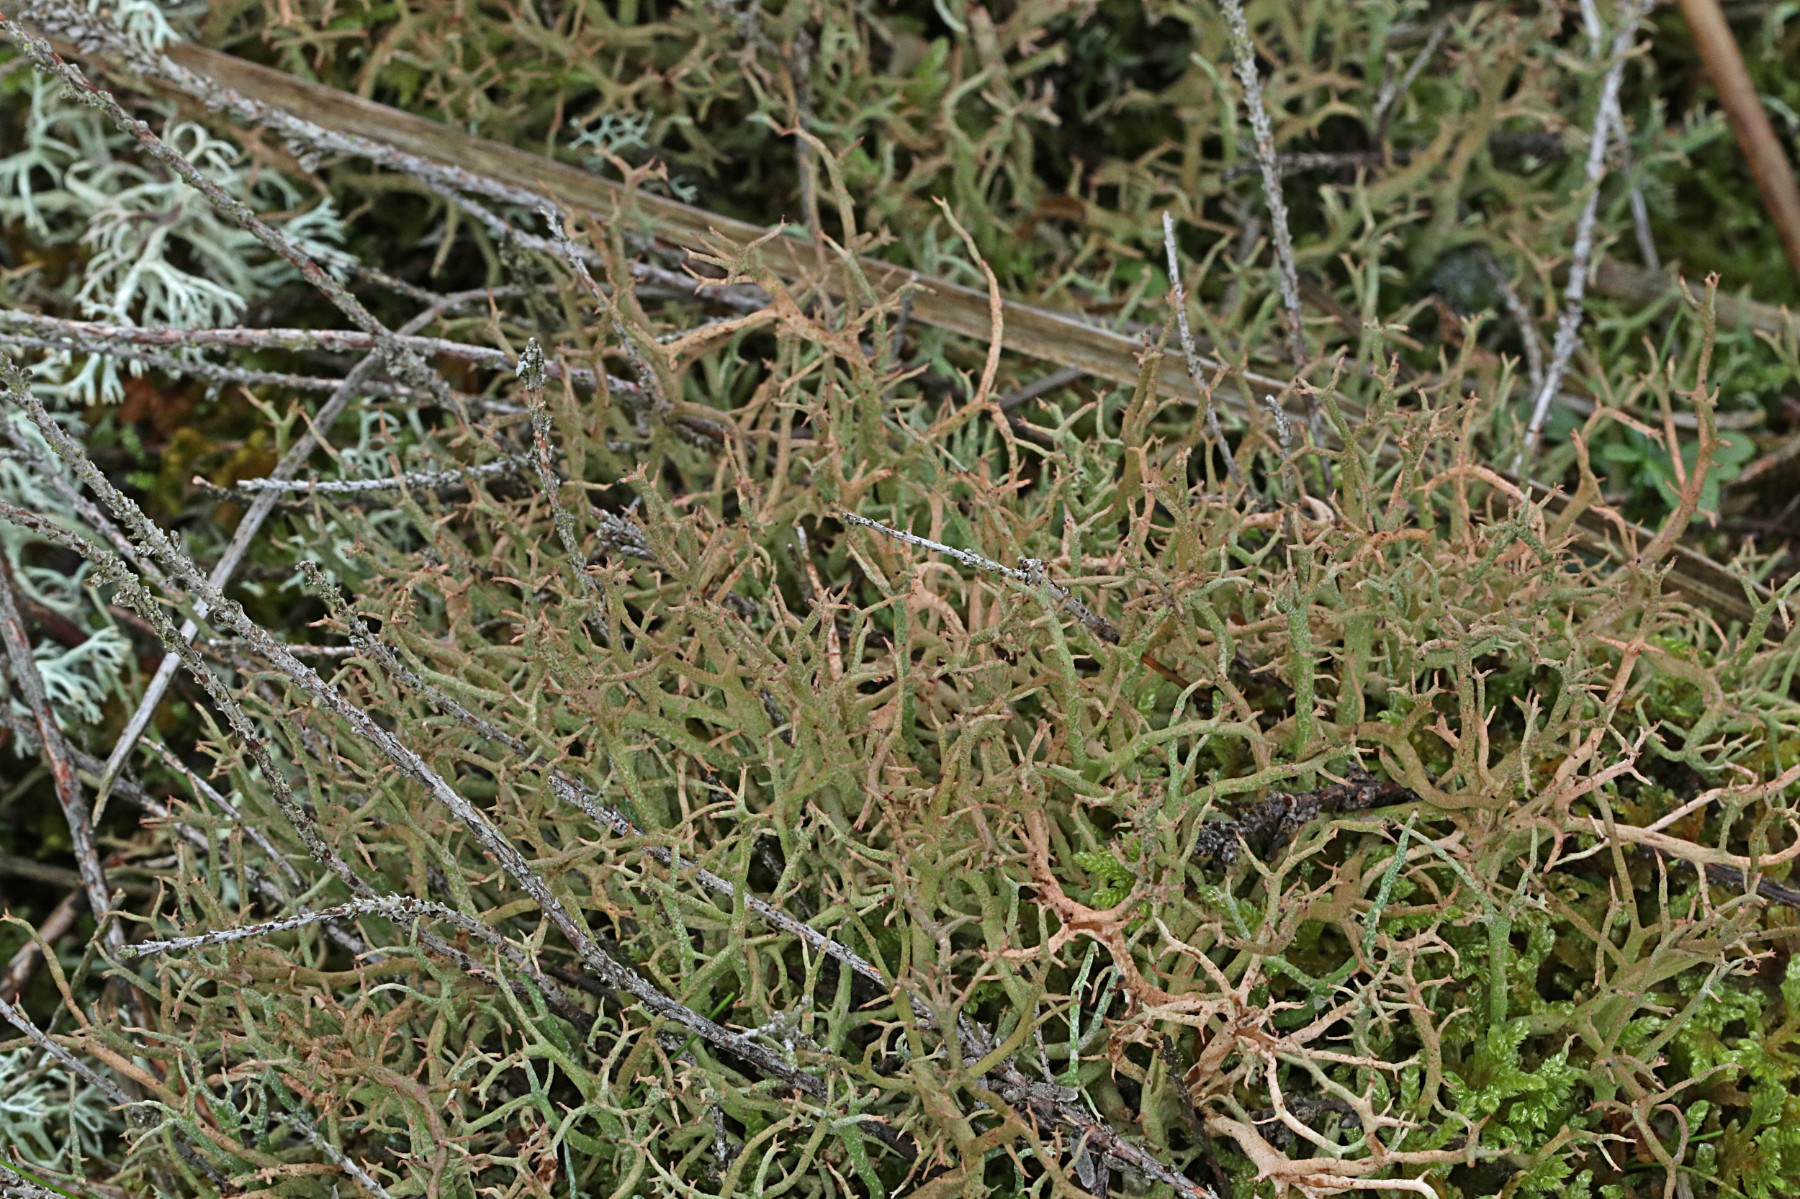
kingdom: Fungi
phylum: Ascomycota
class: Lecanoromycetes
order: Lecanorales
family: Cladoniaceae
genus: Cladonia
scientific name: Cladonia furcata
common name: kløftet bægerlav
